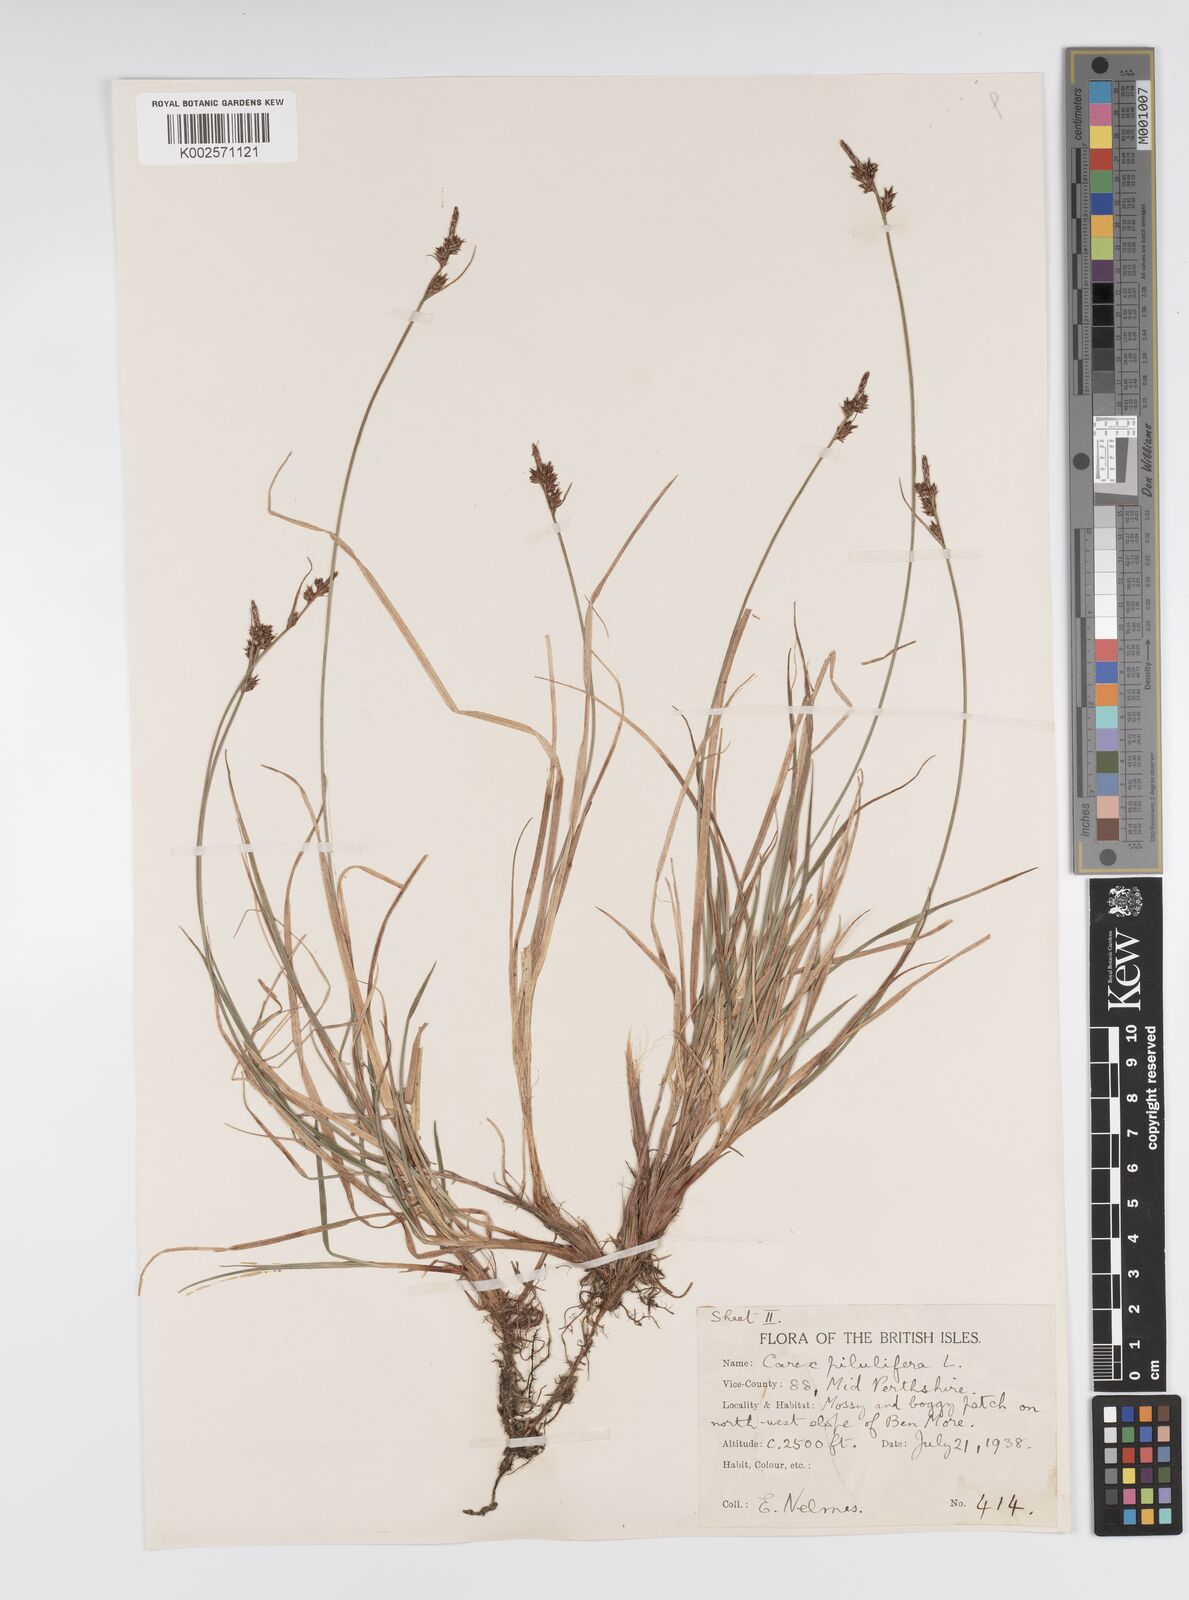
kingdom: Plantae
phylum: Tracheophyta
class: Liliopsida
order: Poales
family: Cyperaceae
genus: Carex
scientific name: Carex pilulifera
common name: Pill sedge
